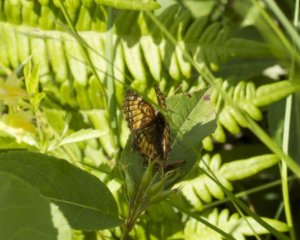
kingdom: Animalia
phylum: Arthropoda
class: Insecta
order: Lepidoptera
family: Nymphalidae
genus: Chlosyne
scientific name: Chlosyne harrisii
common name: Harris's Checkerspot
